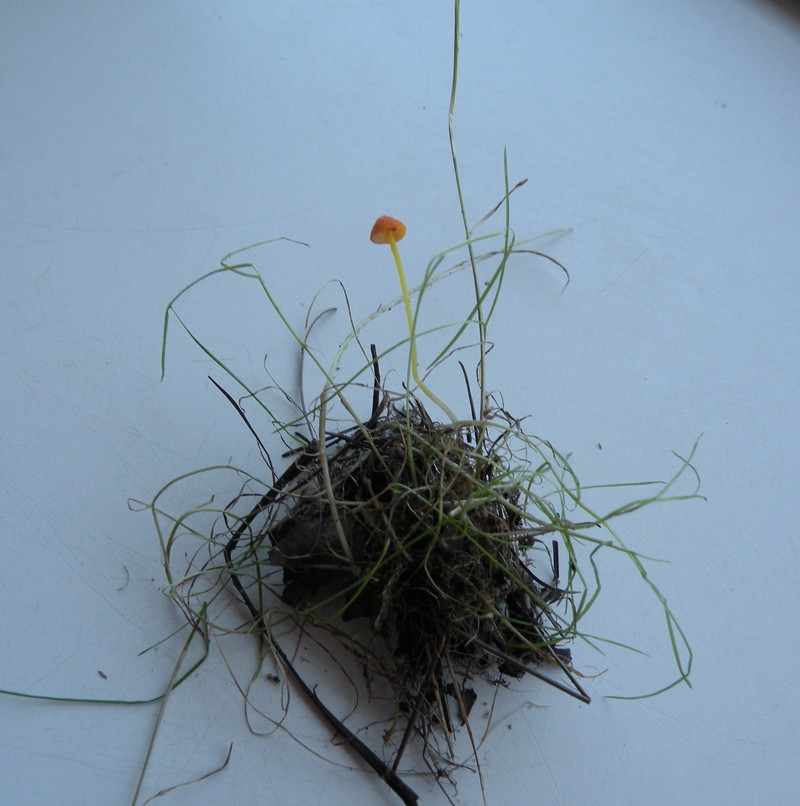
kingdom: Fungi
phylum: Basidiomycota
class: Agaricomycetes
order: Agaricales
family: Mycenaceae
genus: Mycena
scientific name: Mycena acicula
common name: orange huesvamp
